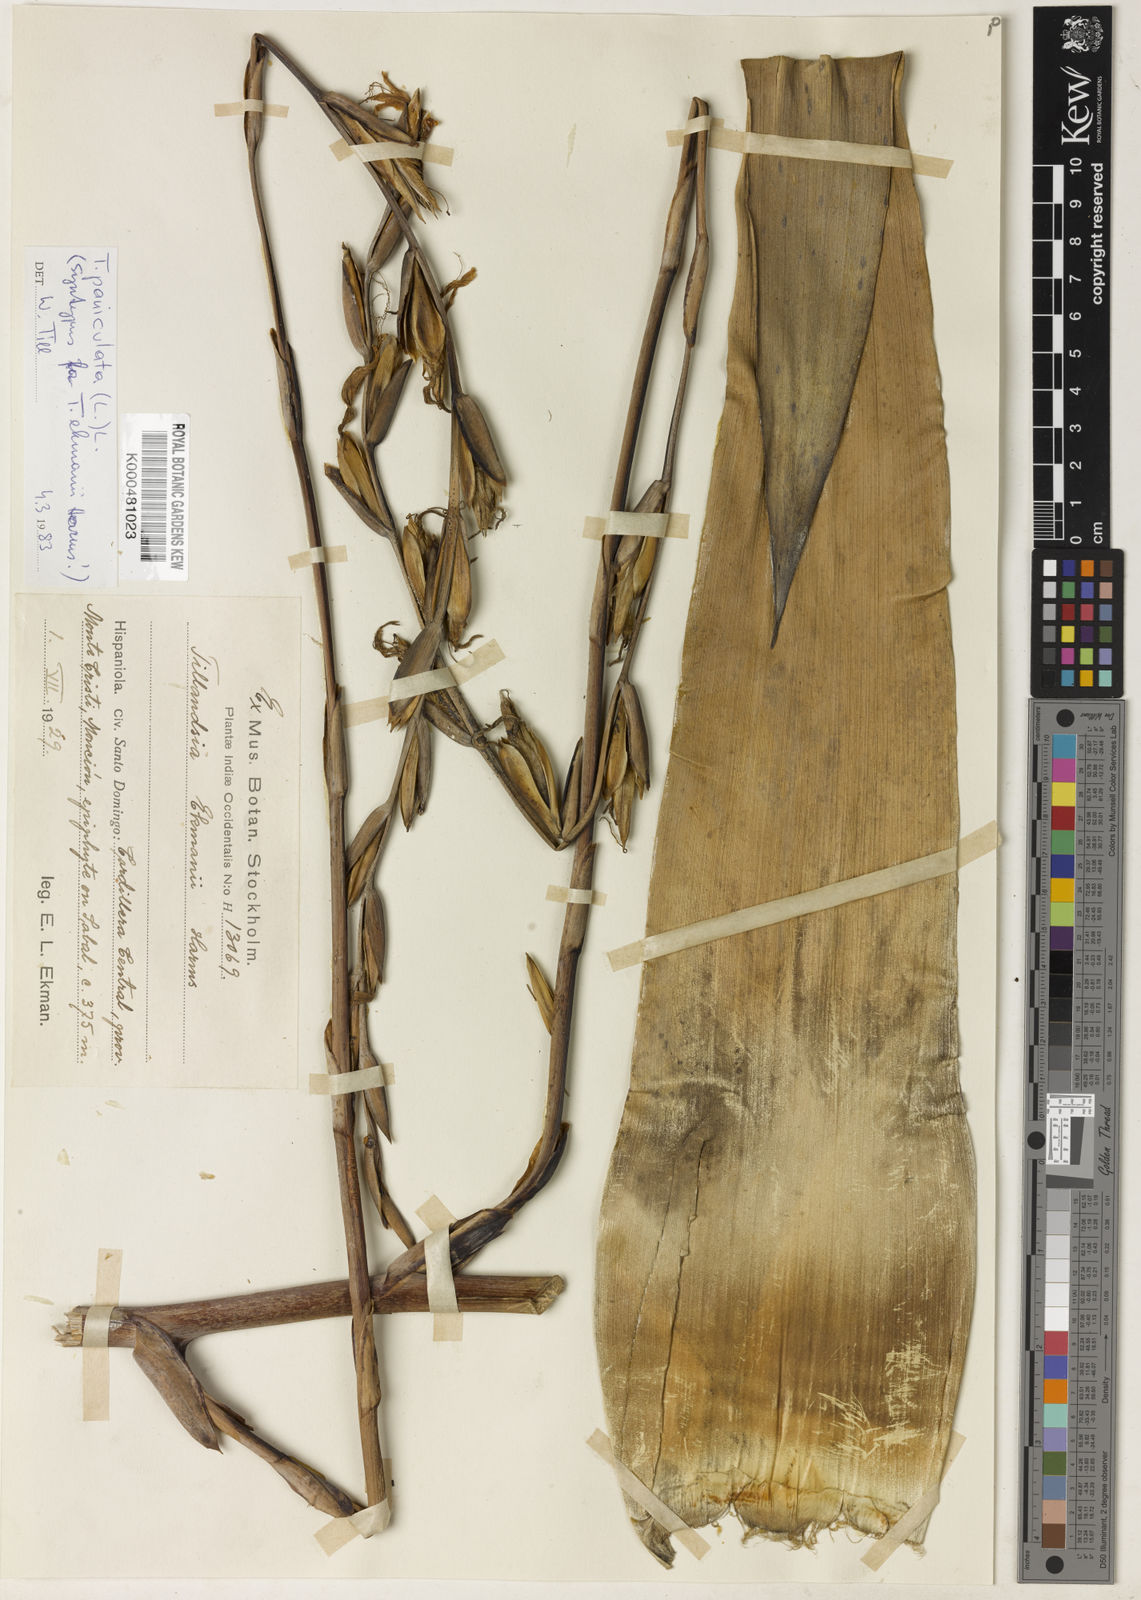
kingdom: Plantae
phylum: Tracheophyta
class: Liliopsida
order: Poales
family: Bromeliaceae
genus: Tillandsia
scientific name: Tillandsia paniculata
